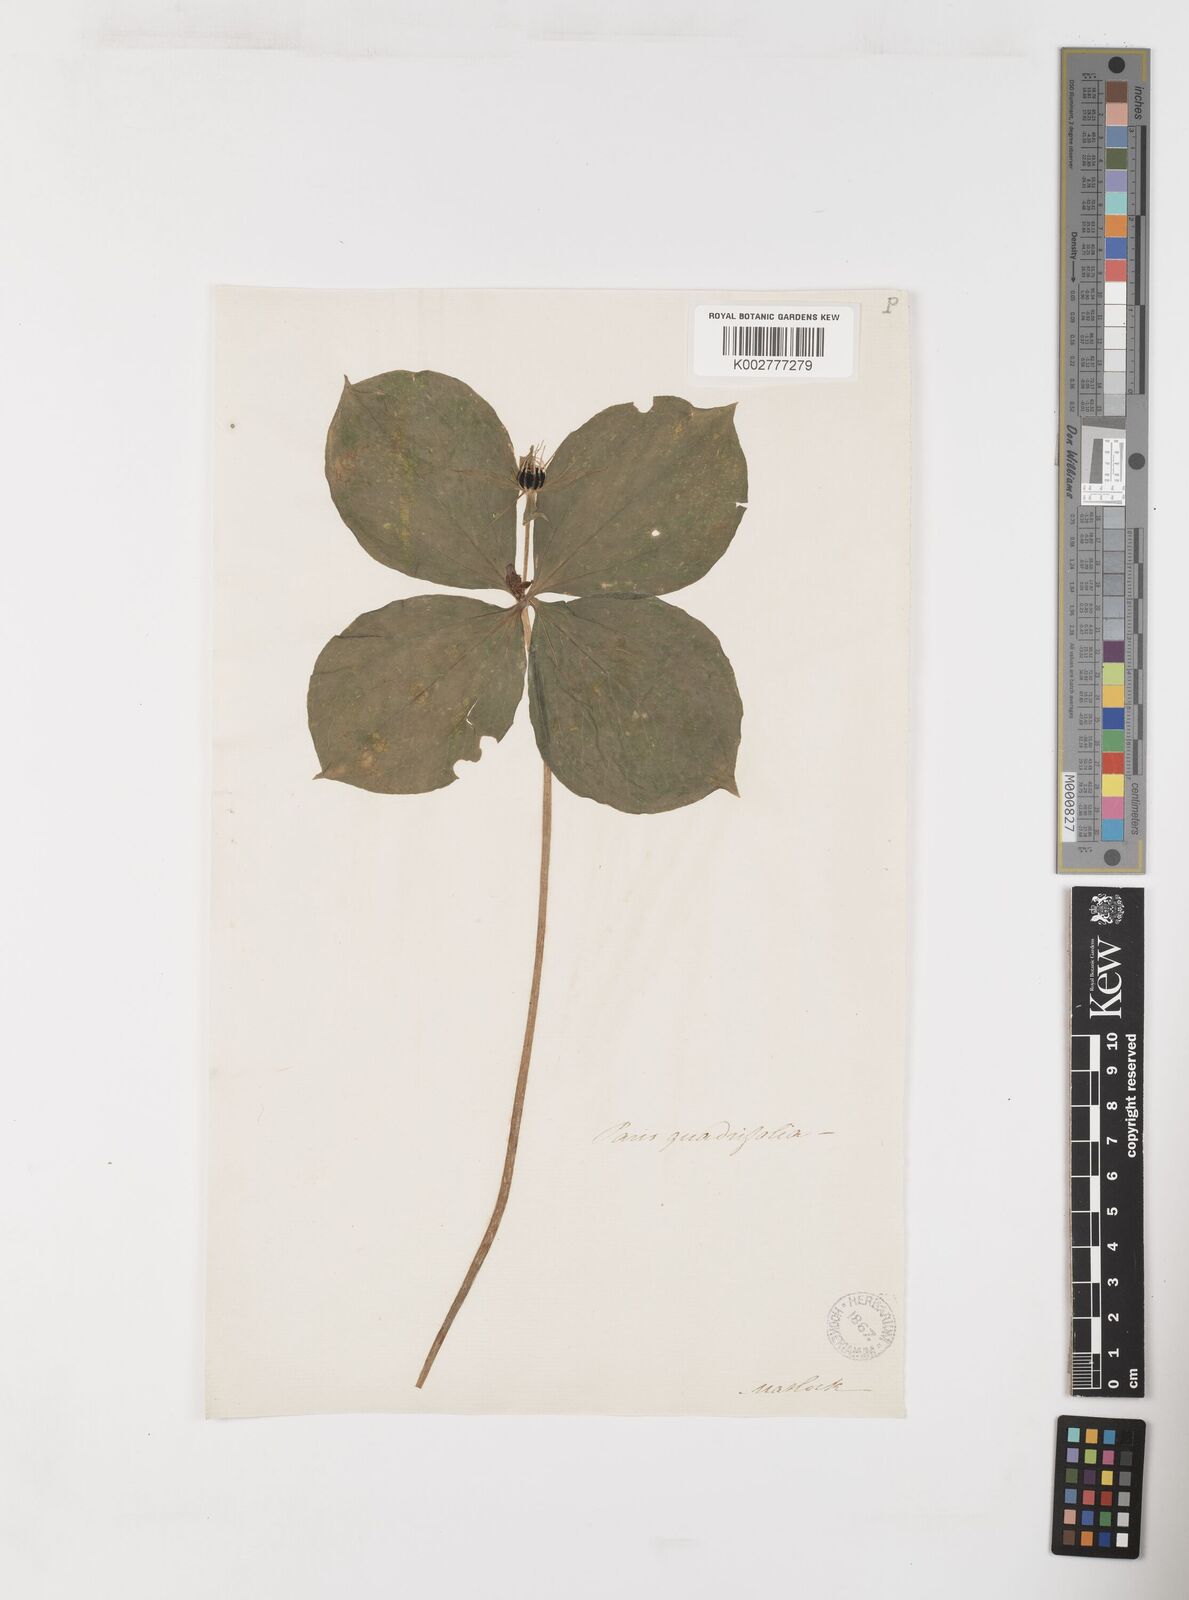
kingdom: Plantae
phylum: Tracheophyta
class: Liliopsida
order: Liliales
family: Melanthiaceae
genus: Paris
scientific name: Paris quadrifolia
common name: Herb-paris
